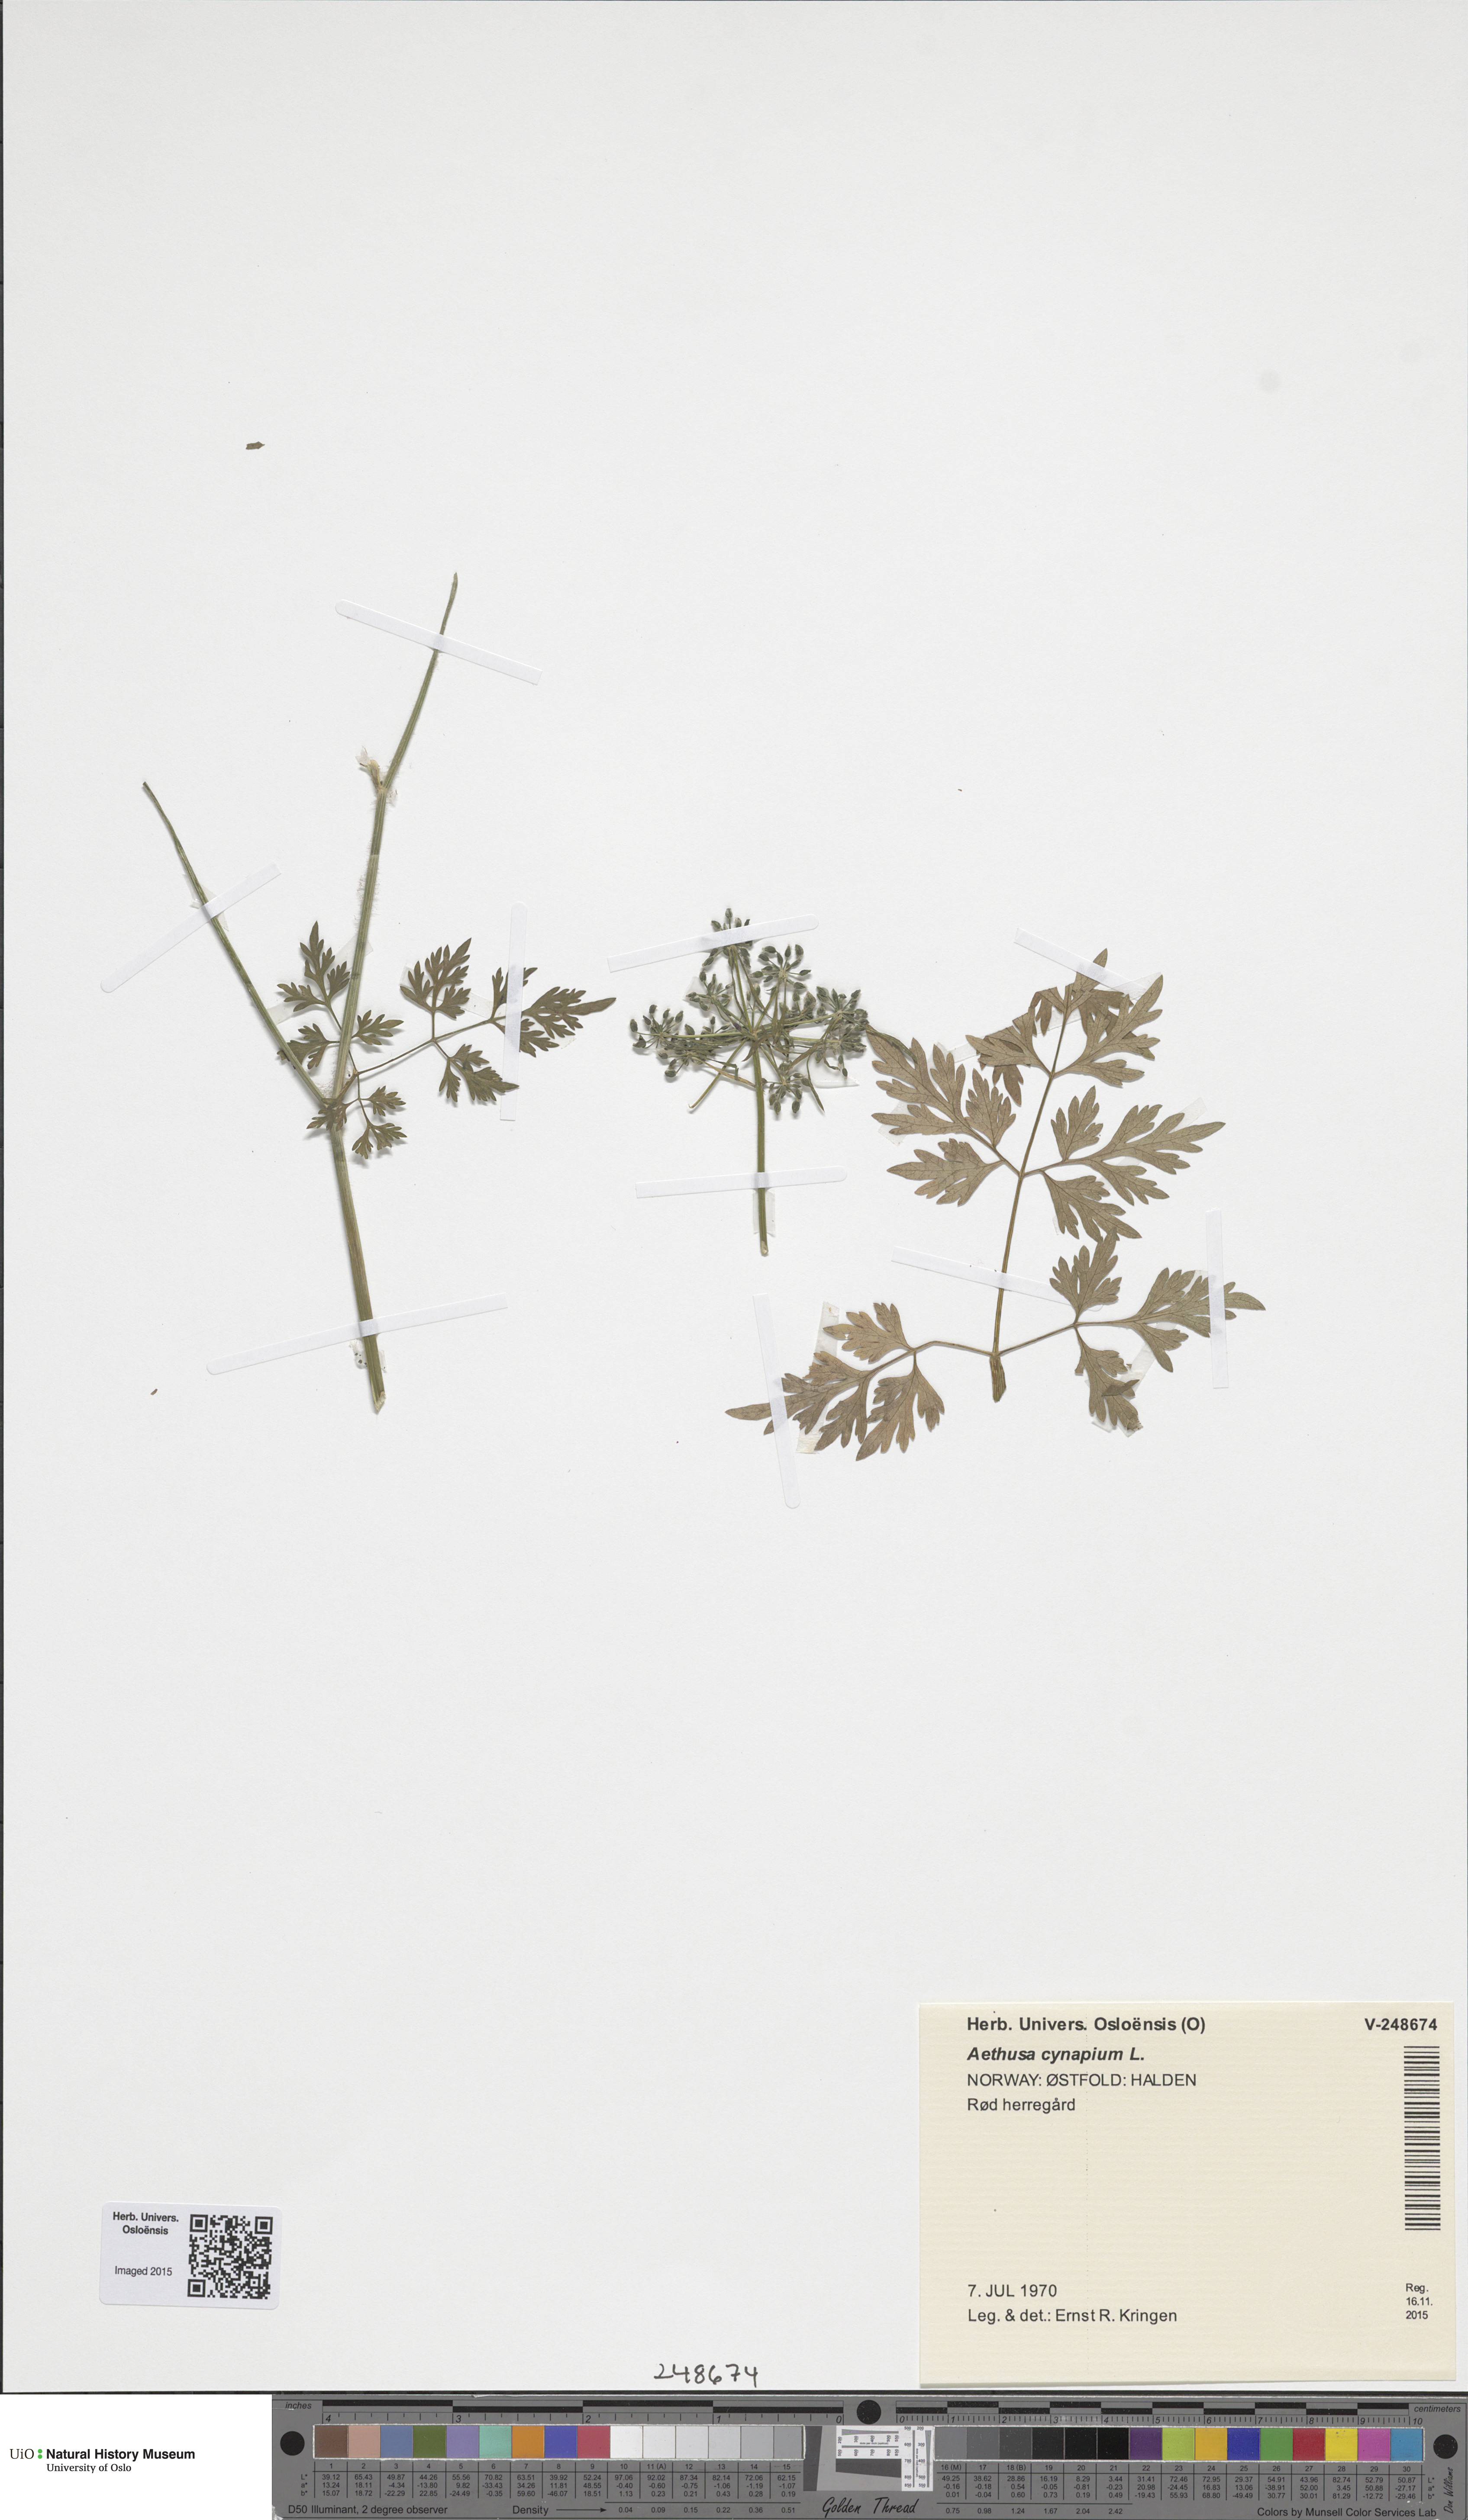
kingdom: Plantae
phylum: Tracheophyta
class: Magnoliopsida
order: Apiales
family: Apiaceae
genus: Aethusa
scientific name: Aethusa cynapium
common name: Fool's parsley
